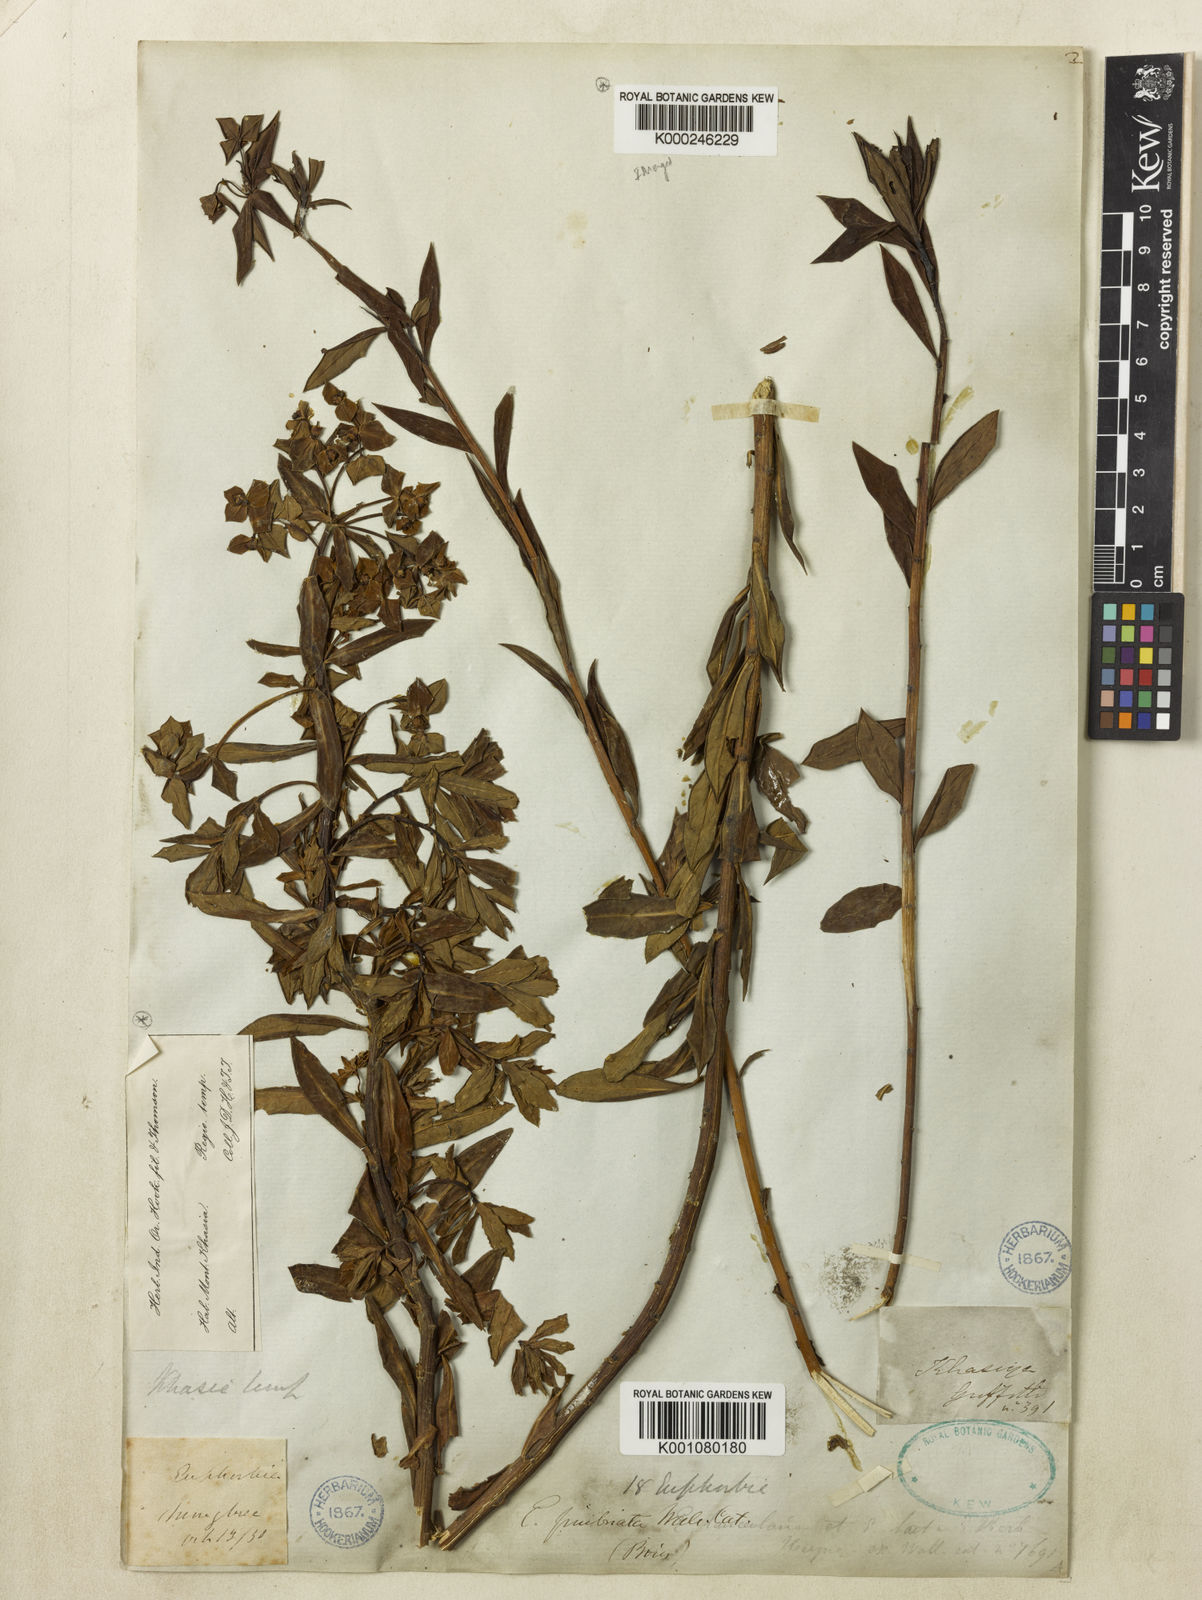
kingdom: Plantae
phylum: Tracheophyta
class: Magnoliopsida
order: Malpighiales
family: Euphorbiaceae
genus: Euphorbia
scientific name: Euphorbia khasyana
